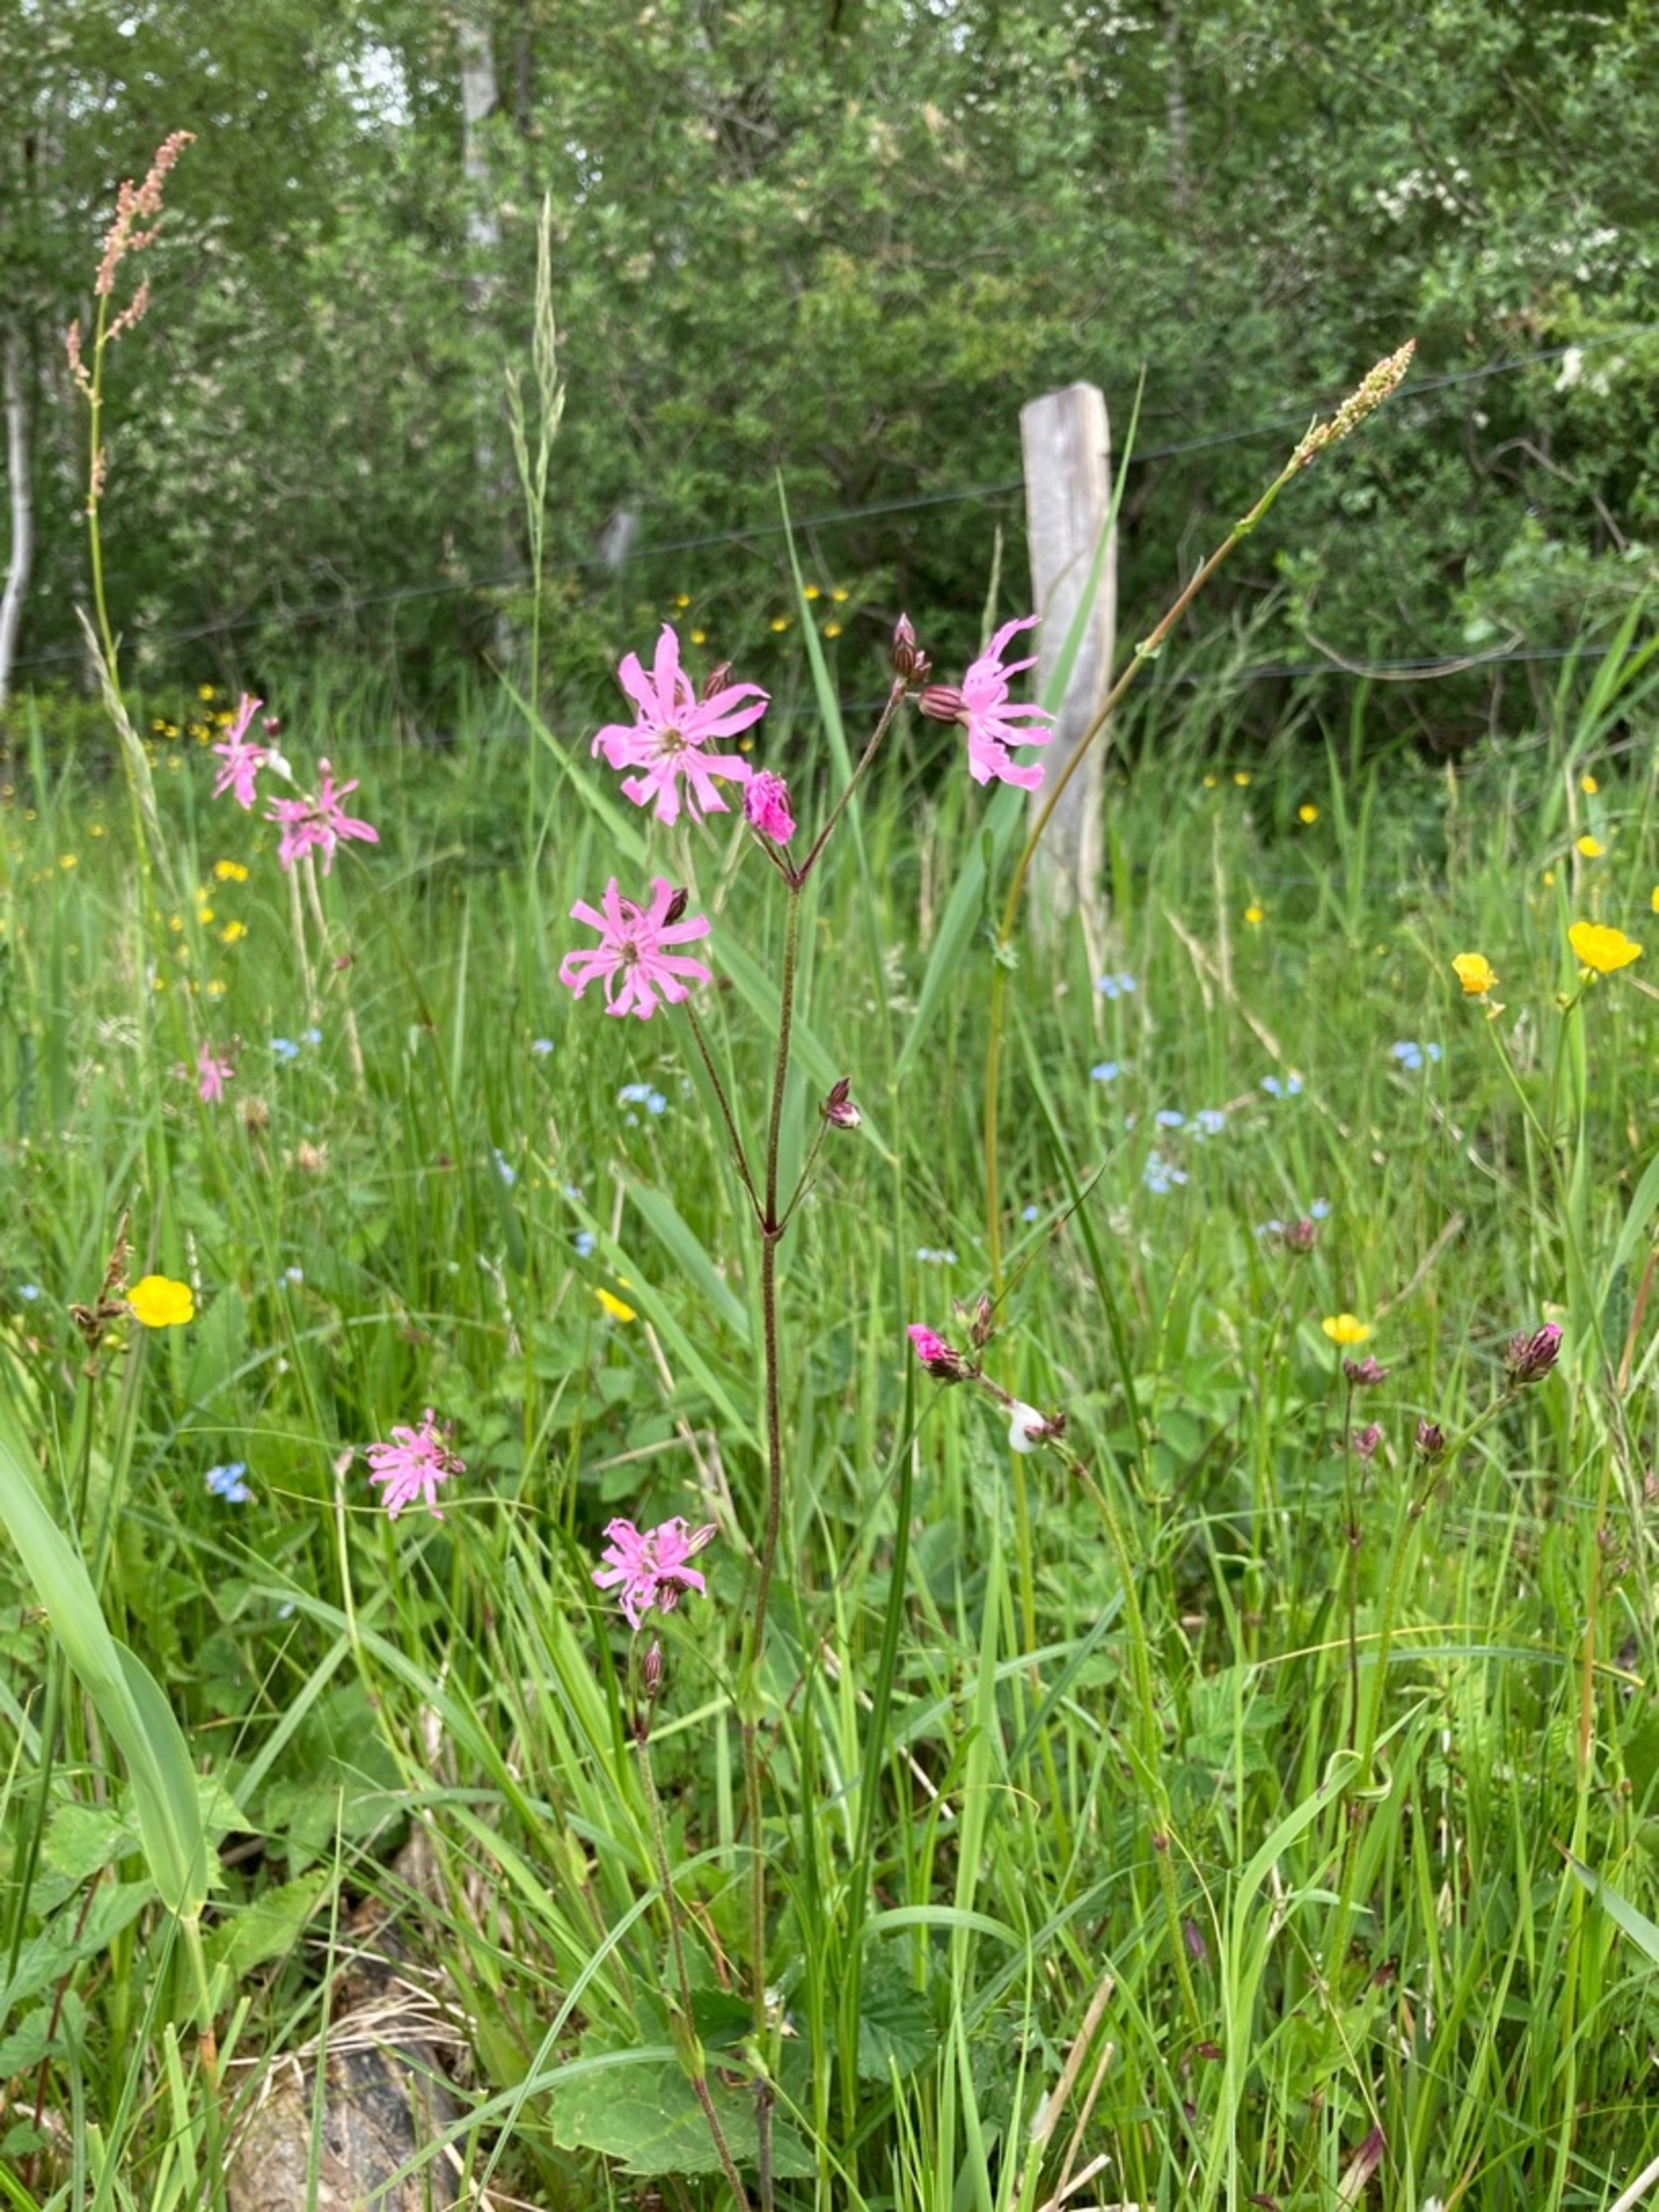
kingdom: Plantae
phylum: Tracheophyta
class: Magnoliopsida
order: Caryophyllales
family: Caryophyllaceae
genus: Silene
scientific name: Silene flos-cuculi
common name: Trævlekrone
